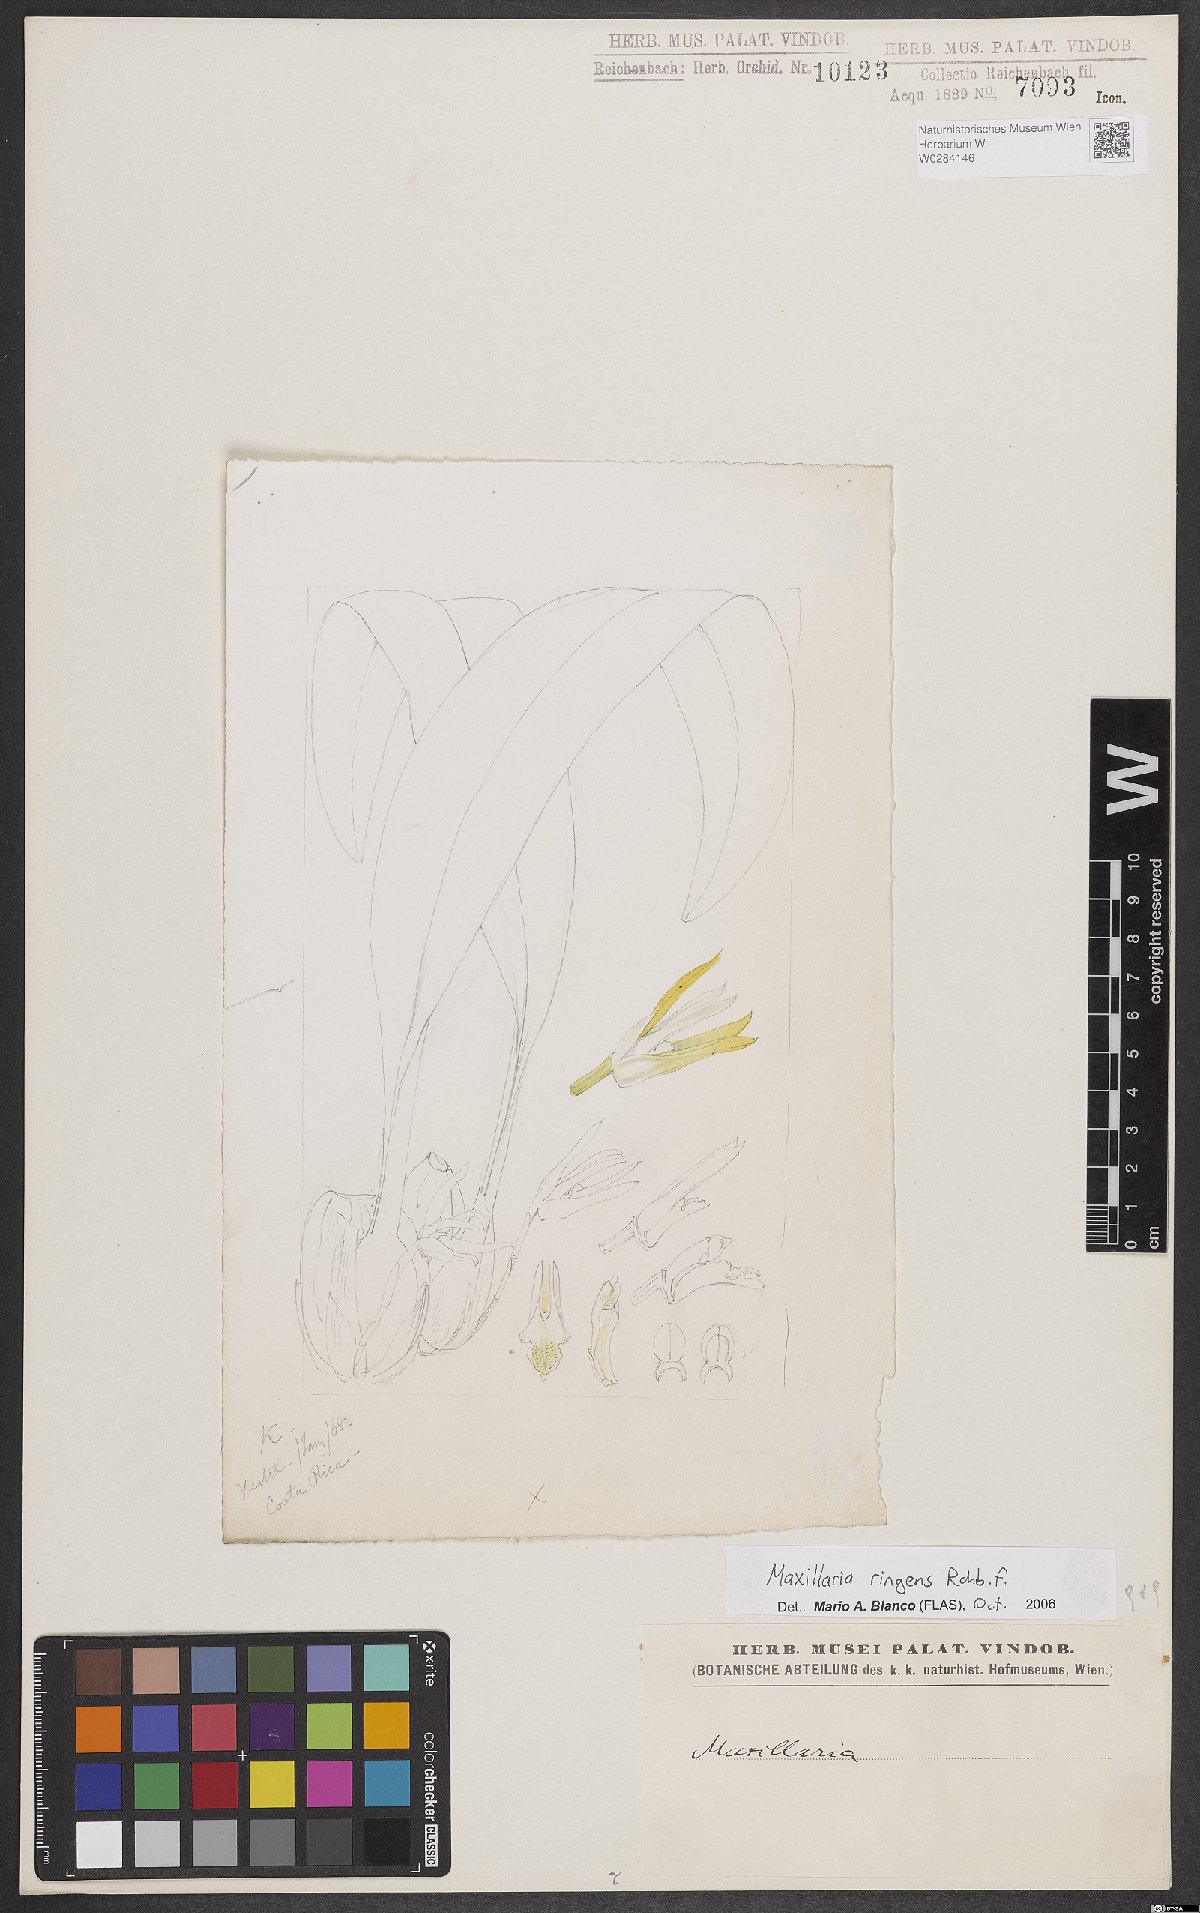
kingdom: Plantae
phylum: Tracheophyta
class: Liliopsida
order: Asparagales
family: Orchidaceae
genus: Maxillaria
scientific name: Maxillaria ringens
